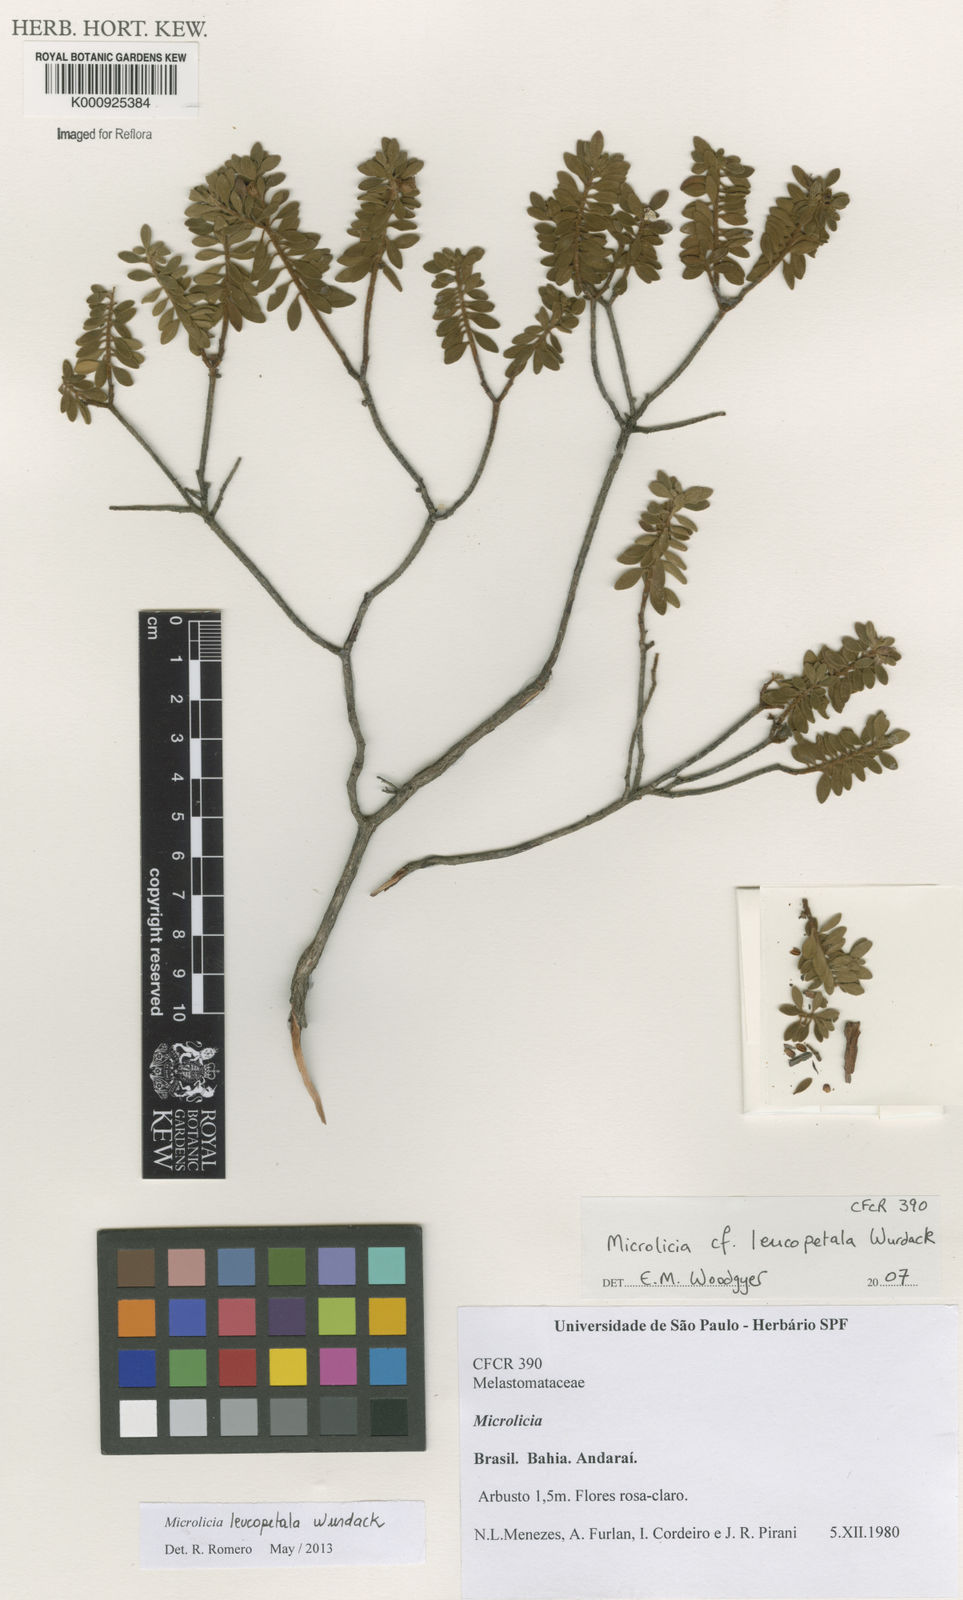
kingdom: Plantae
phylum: Tracheophyta
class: Magnoliopsida
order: Myrtales
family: Melastomataceae
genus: Microlicia
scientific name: Microlicia leucopetala
